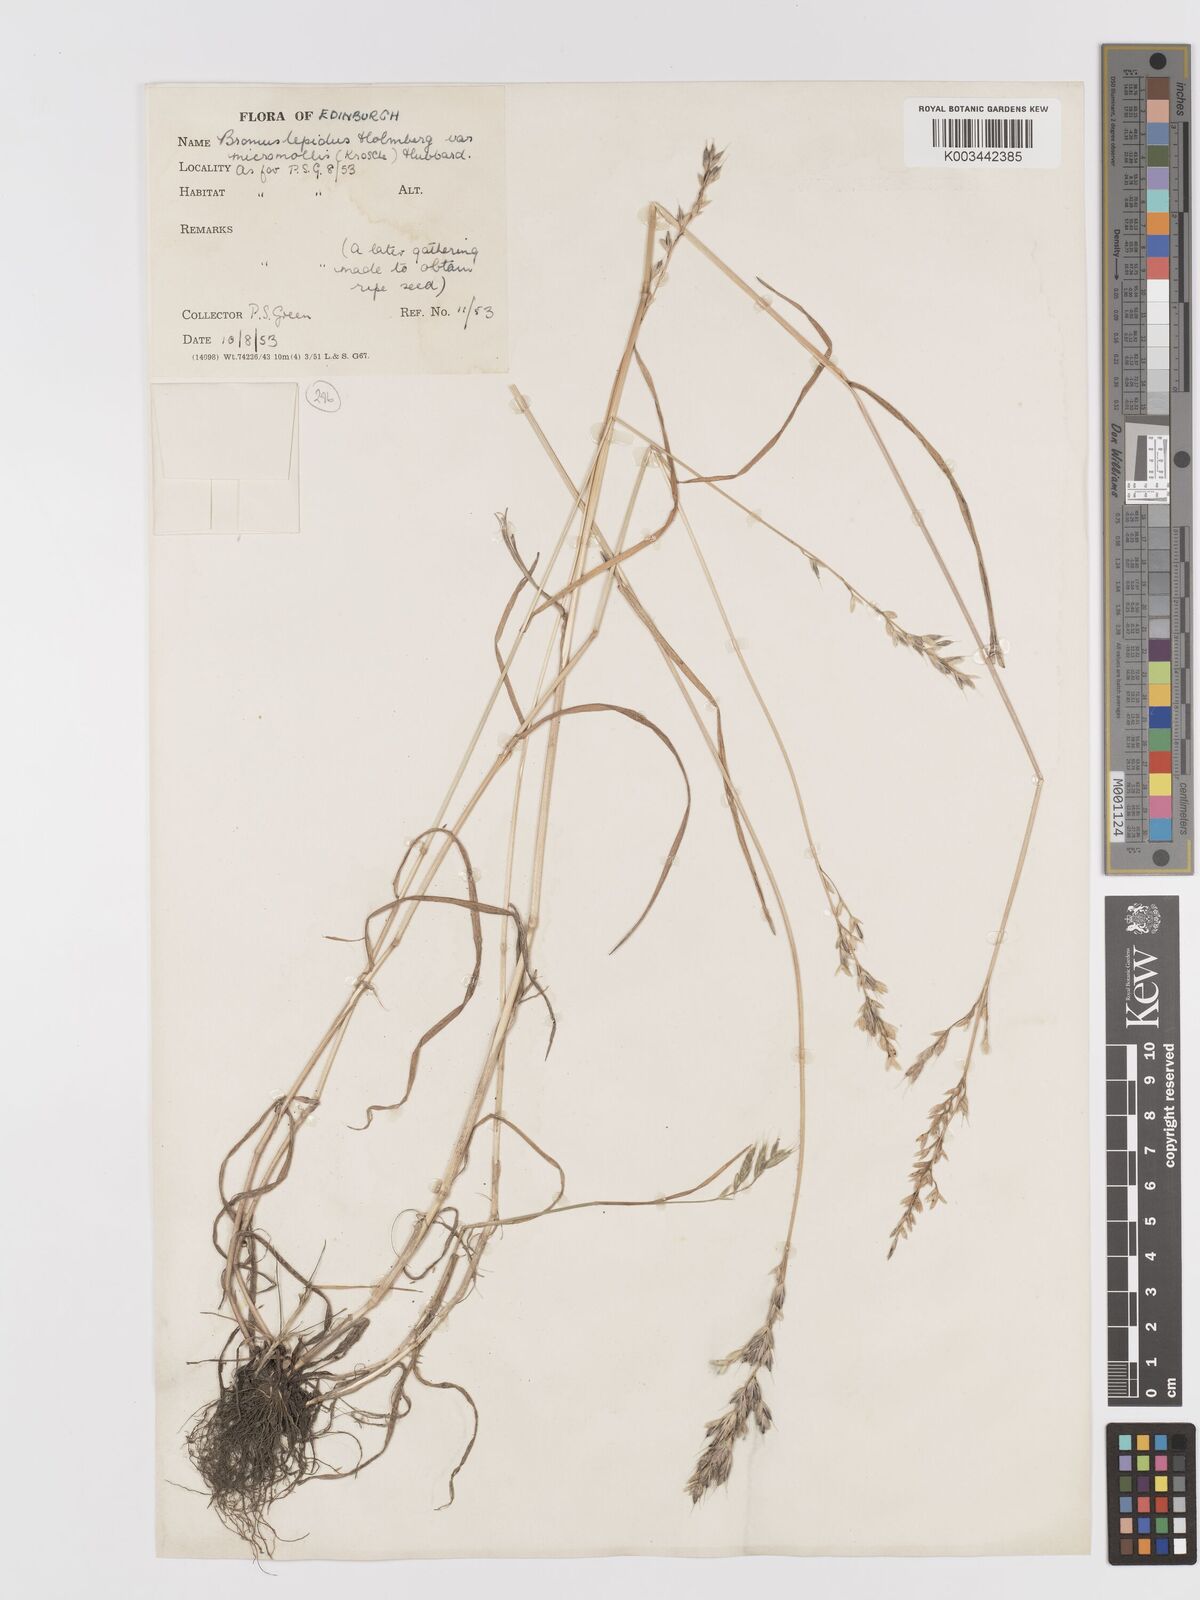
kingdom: Plantae
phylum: Tracheophyta
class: Liliopsida
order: Poales
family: Poaceae
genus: Bromus
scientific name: Bromus lepidus
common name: Slender soft-brome
